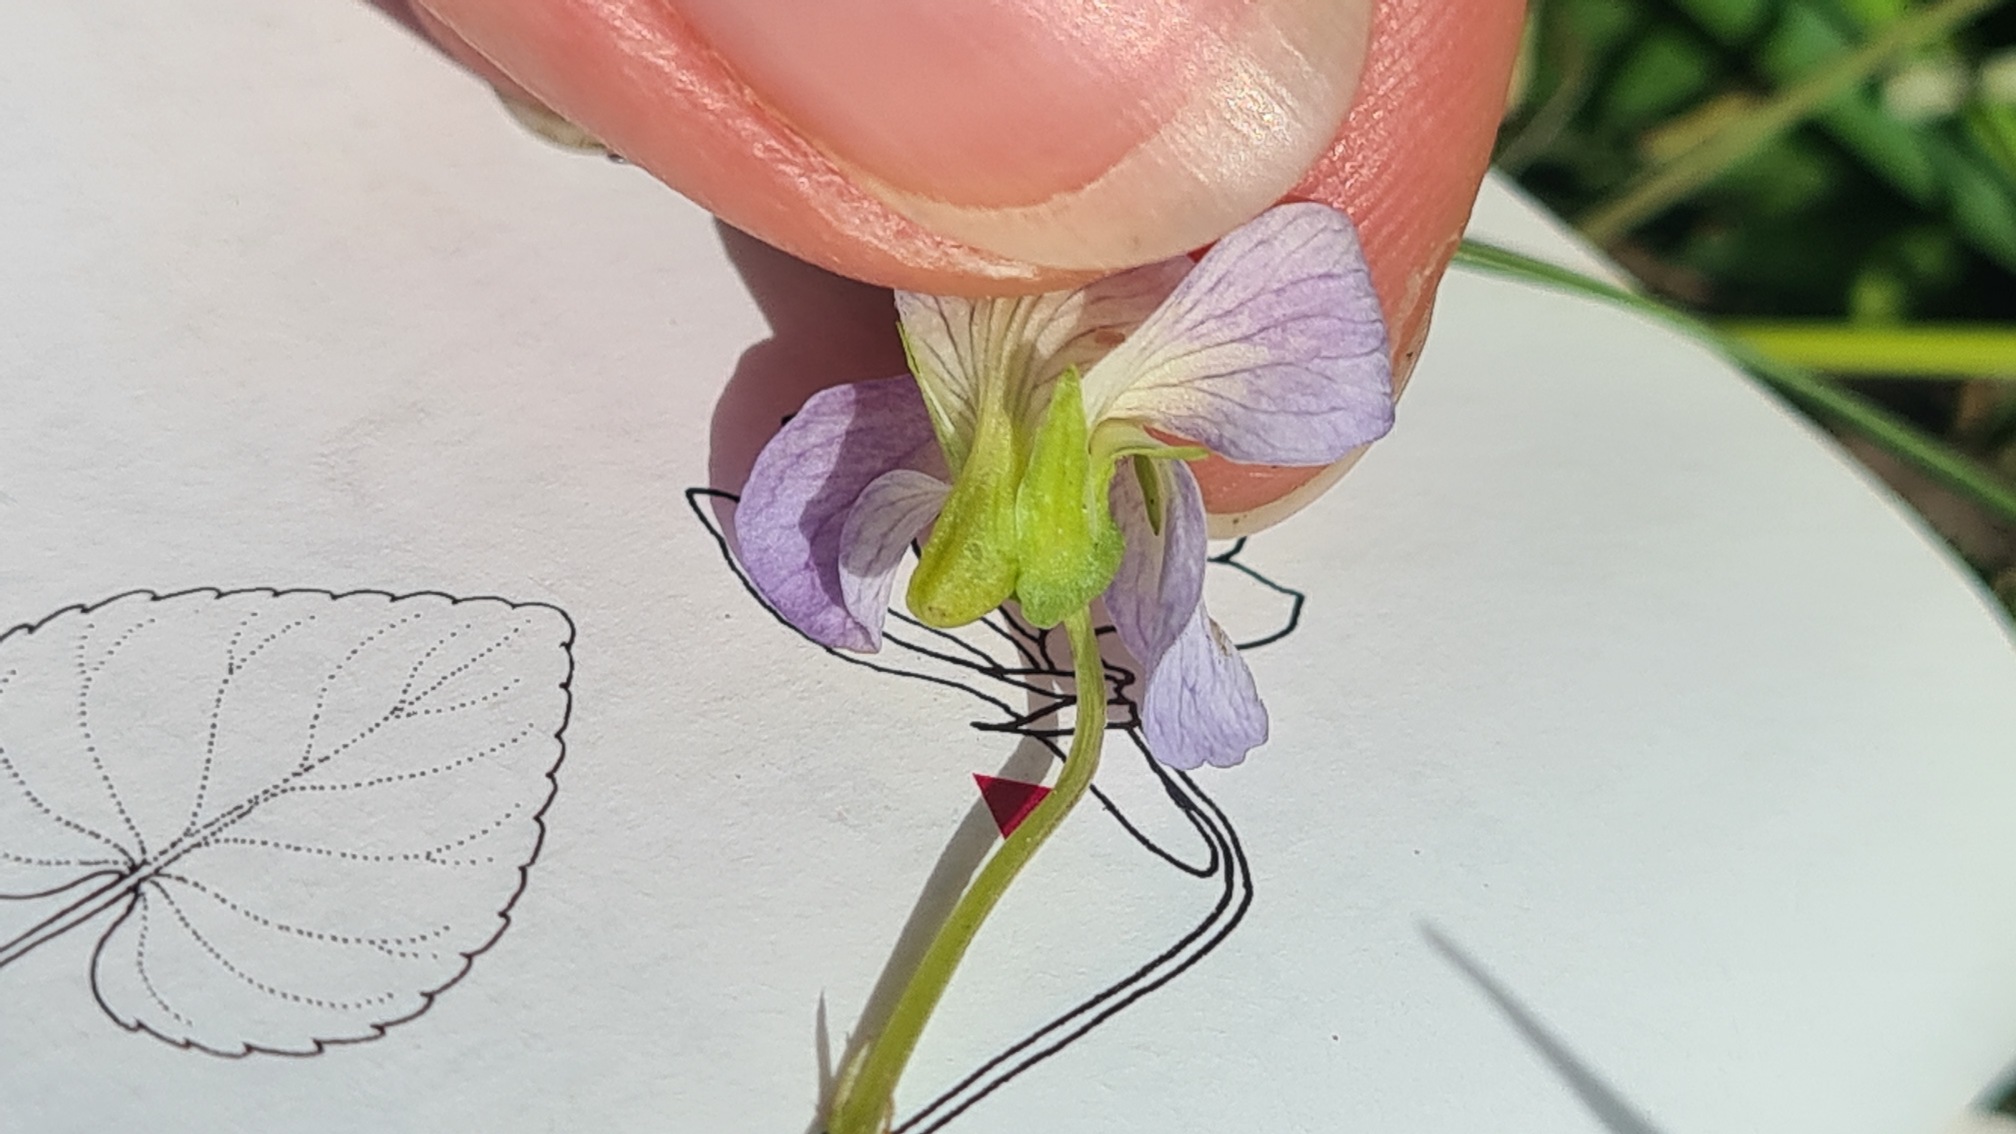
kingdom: Plantae
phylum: Tracheophyta
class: Magnoliopsida
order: Malpighiales
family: Violaceae
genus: Viola
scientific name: Viola stagnina
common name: Rank viol
